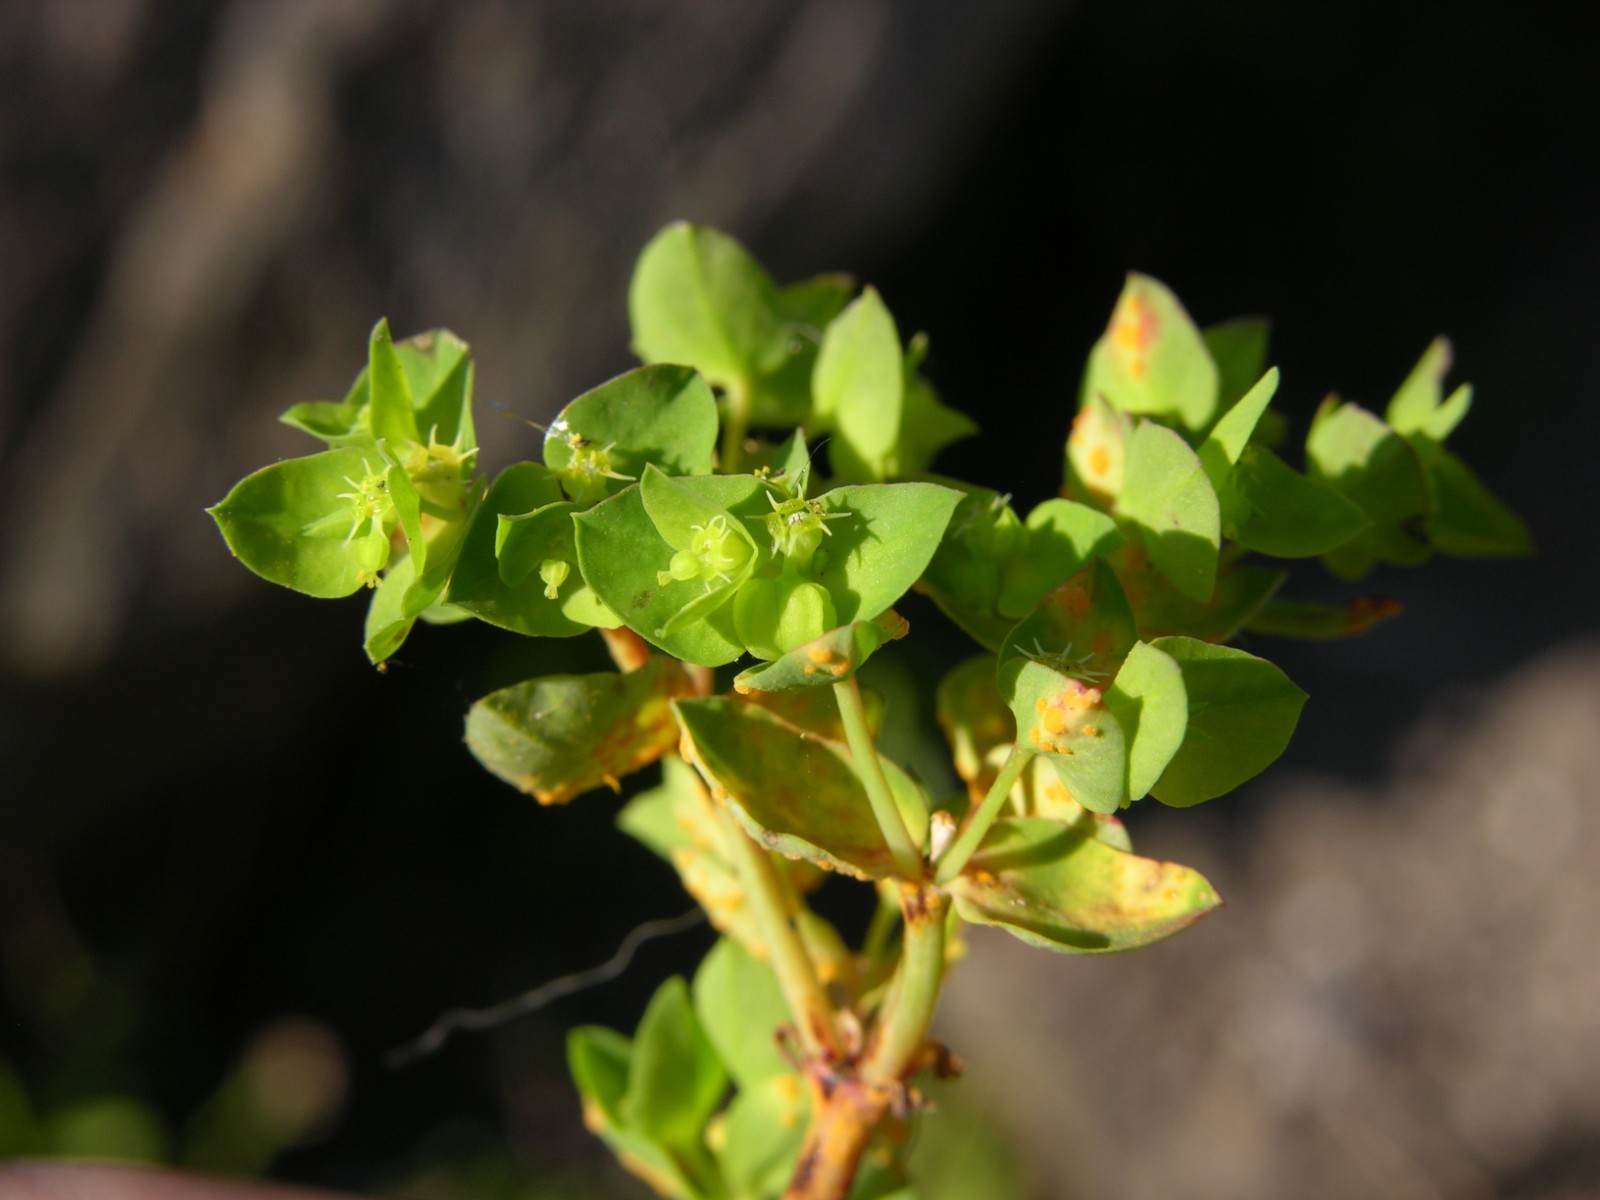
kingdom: Fungi
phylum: Basidiomycota
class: Pucciniomycetes
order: Pucciniales
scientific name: Pucciniales
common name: rustsvampeordenen
